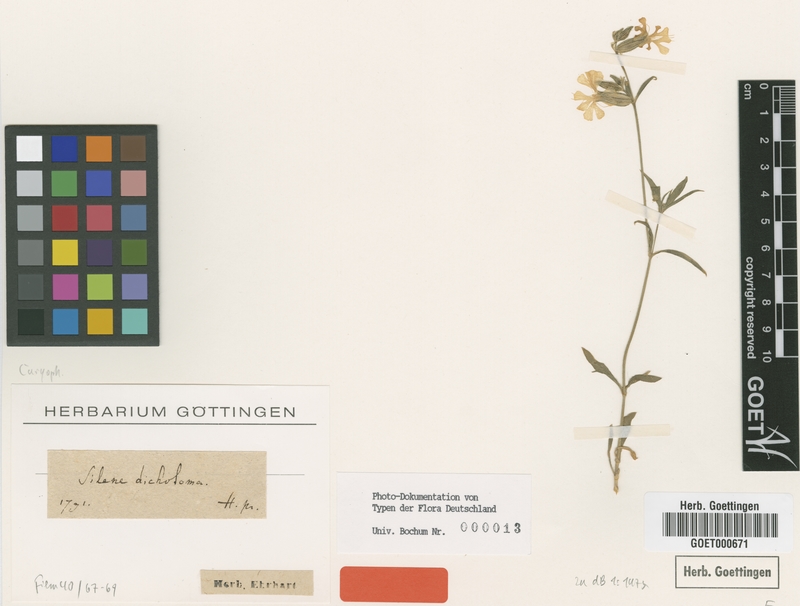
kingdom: Plantae
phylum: Tracheophyta
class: Magnoliopsida
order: Caryophyllales
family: Caryophyllaceae
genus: Silene
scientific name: Silene dichotoma
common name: Forked catchfly
